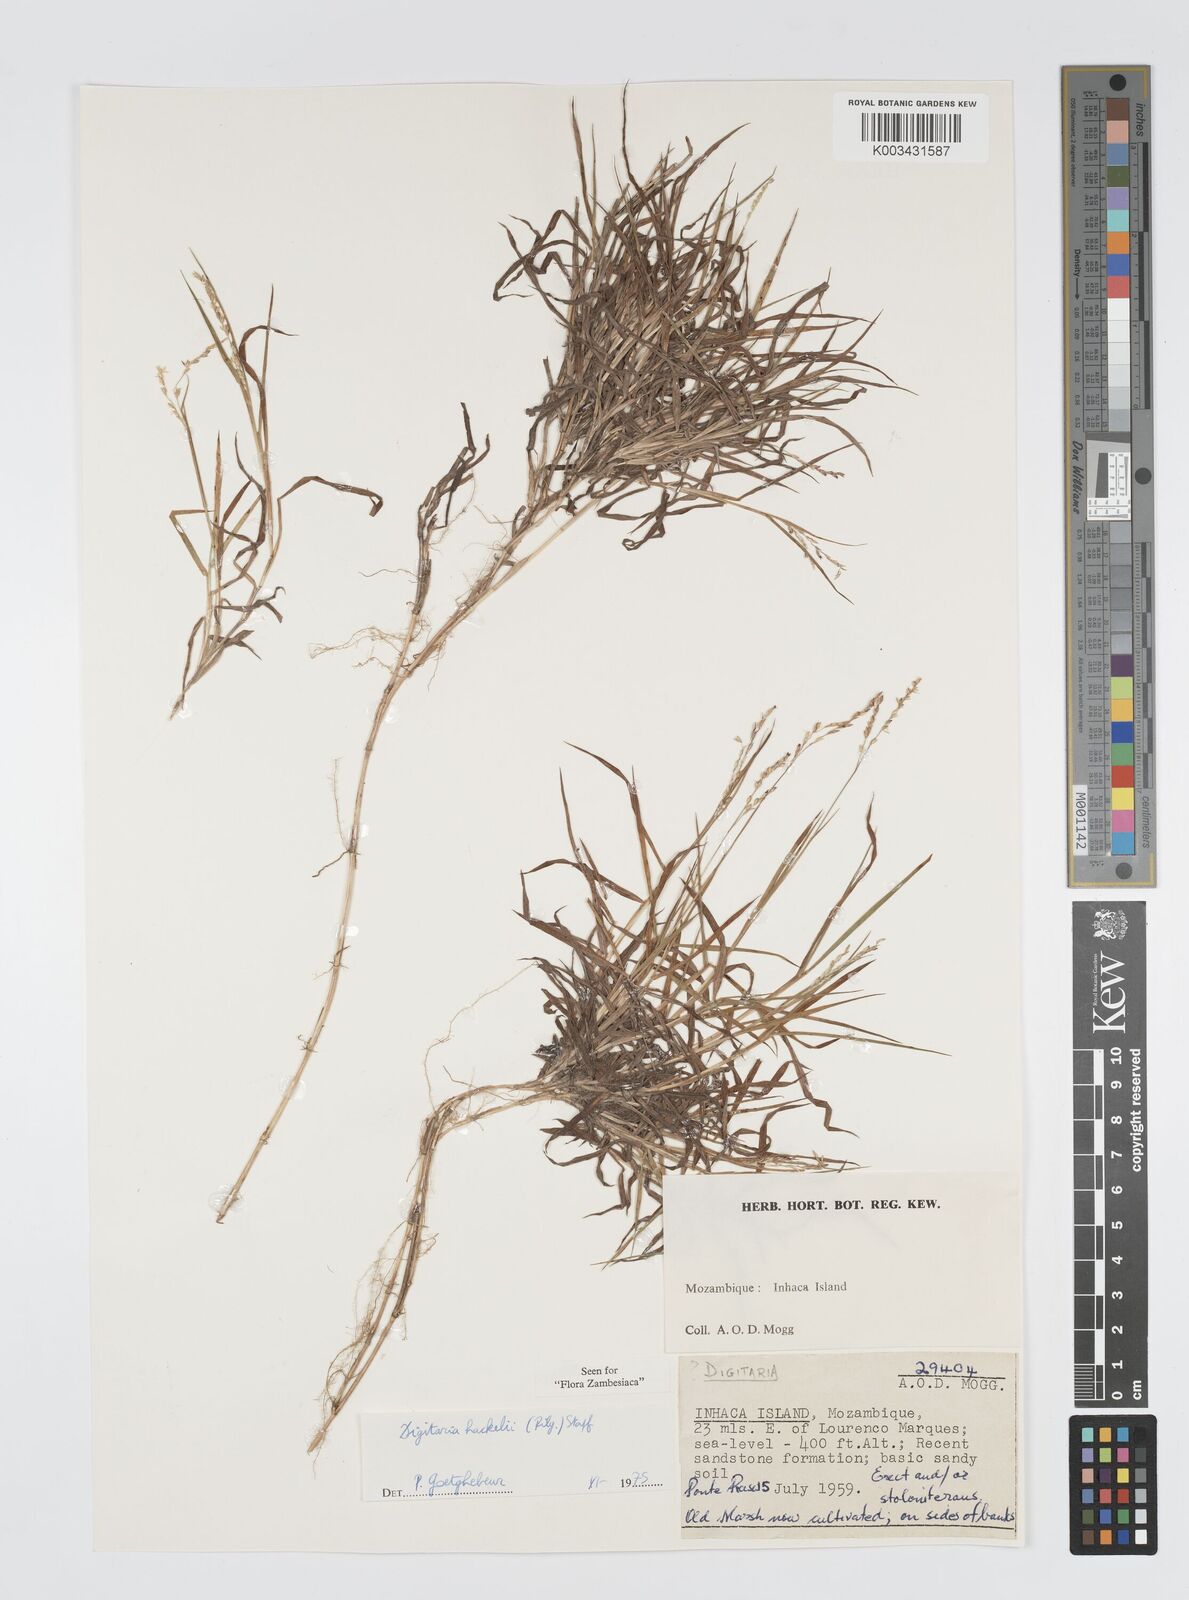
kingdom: Plantae
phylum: Tracheophyta
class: Liliopsida
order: Poales
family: Poaceae
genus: Digitaria
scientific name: Digitaria abyssinica
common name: African couchgrass
